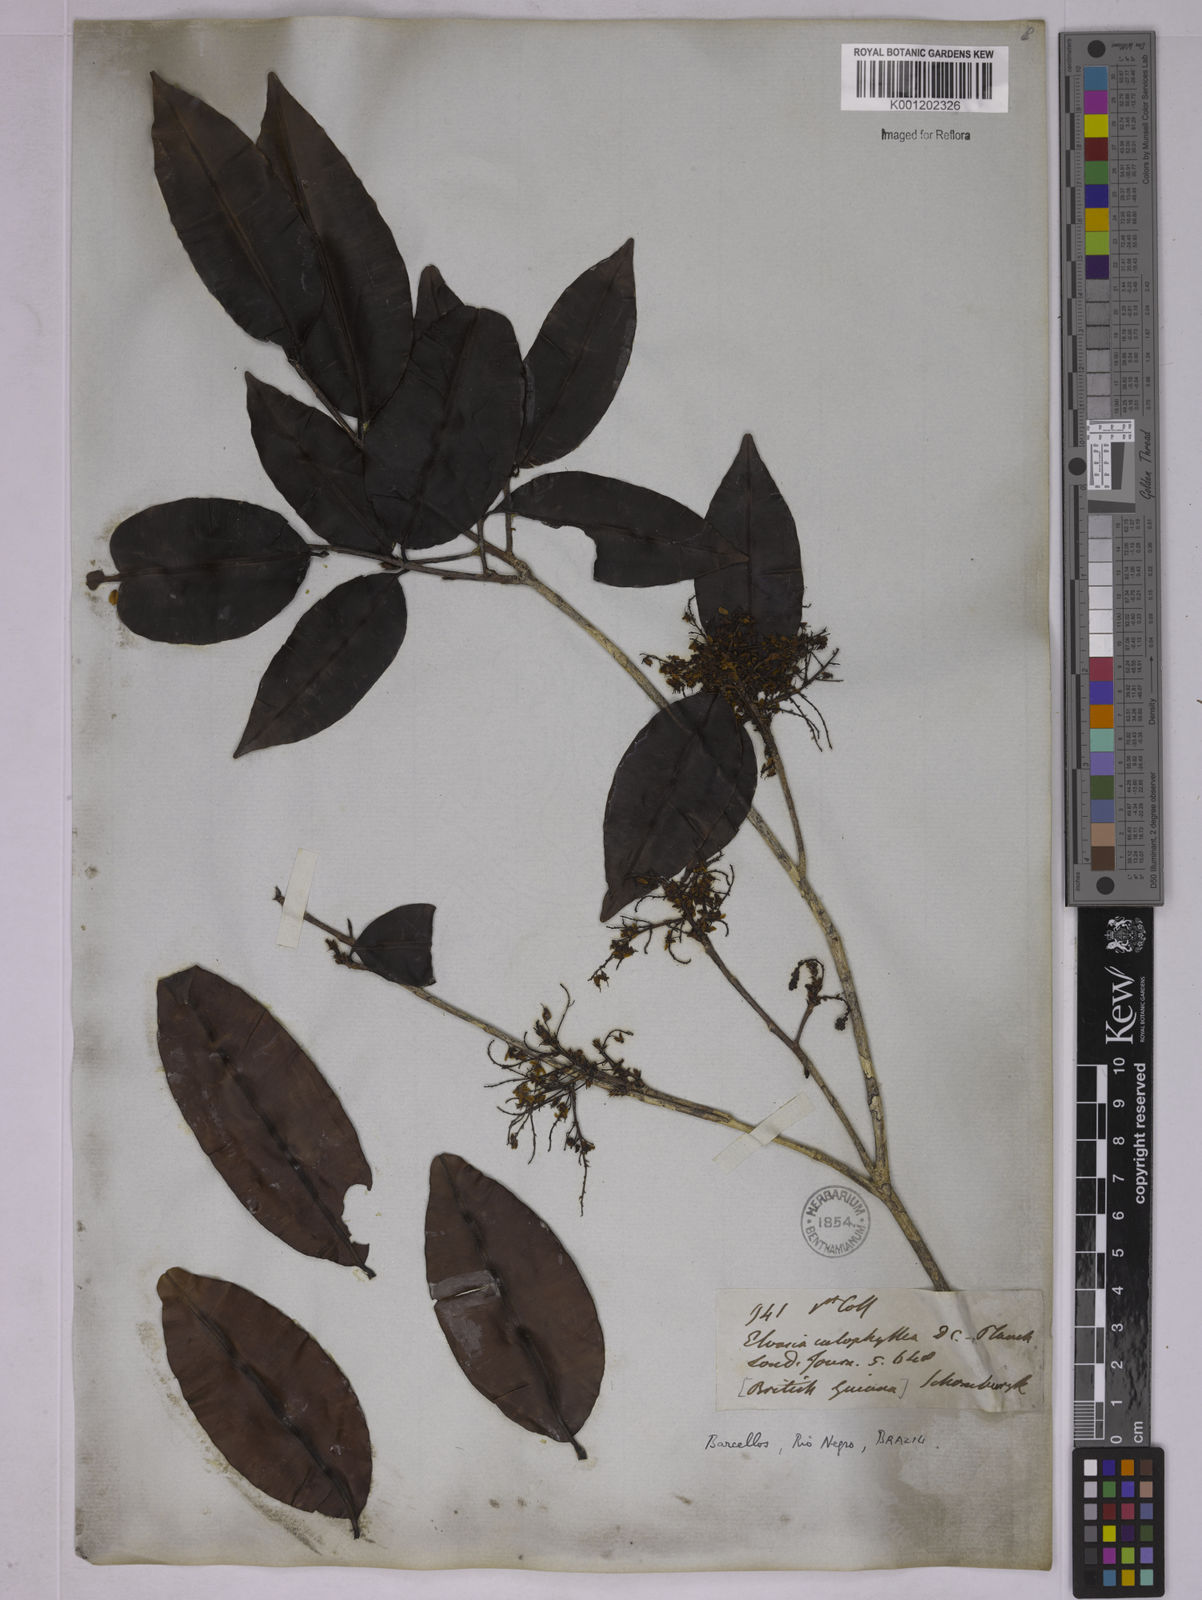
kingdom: Plantae
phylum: Tracheophyta
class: Magnoliopsida
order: Malpighiales
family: Ochnaceae
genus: Elvasia
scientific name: Elvasia calophyllea
